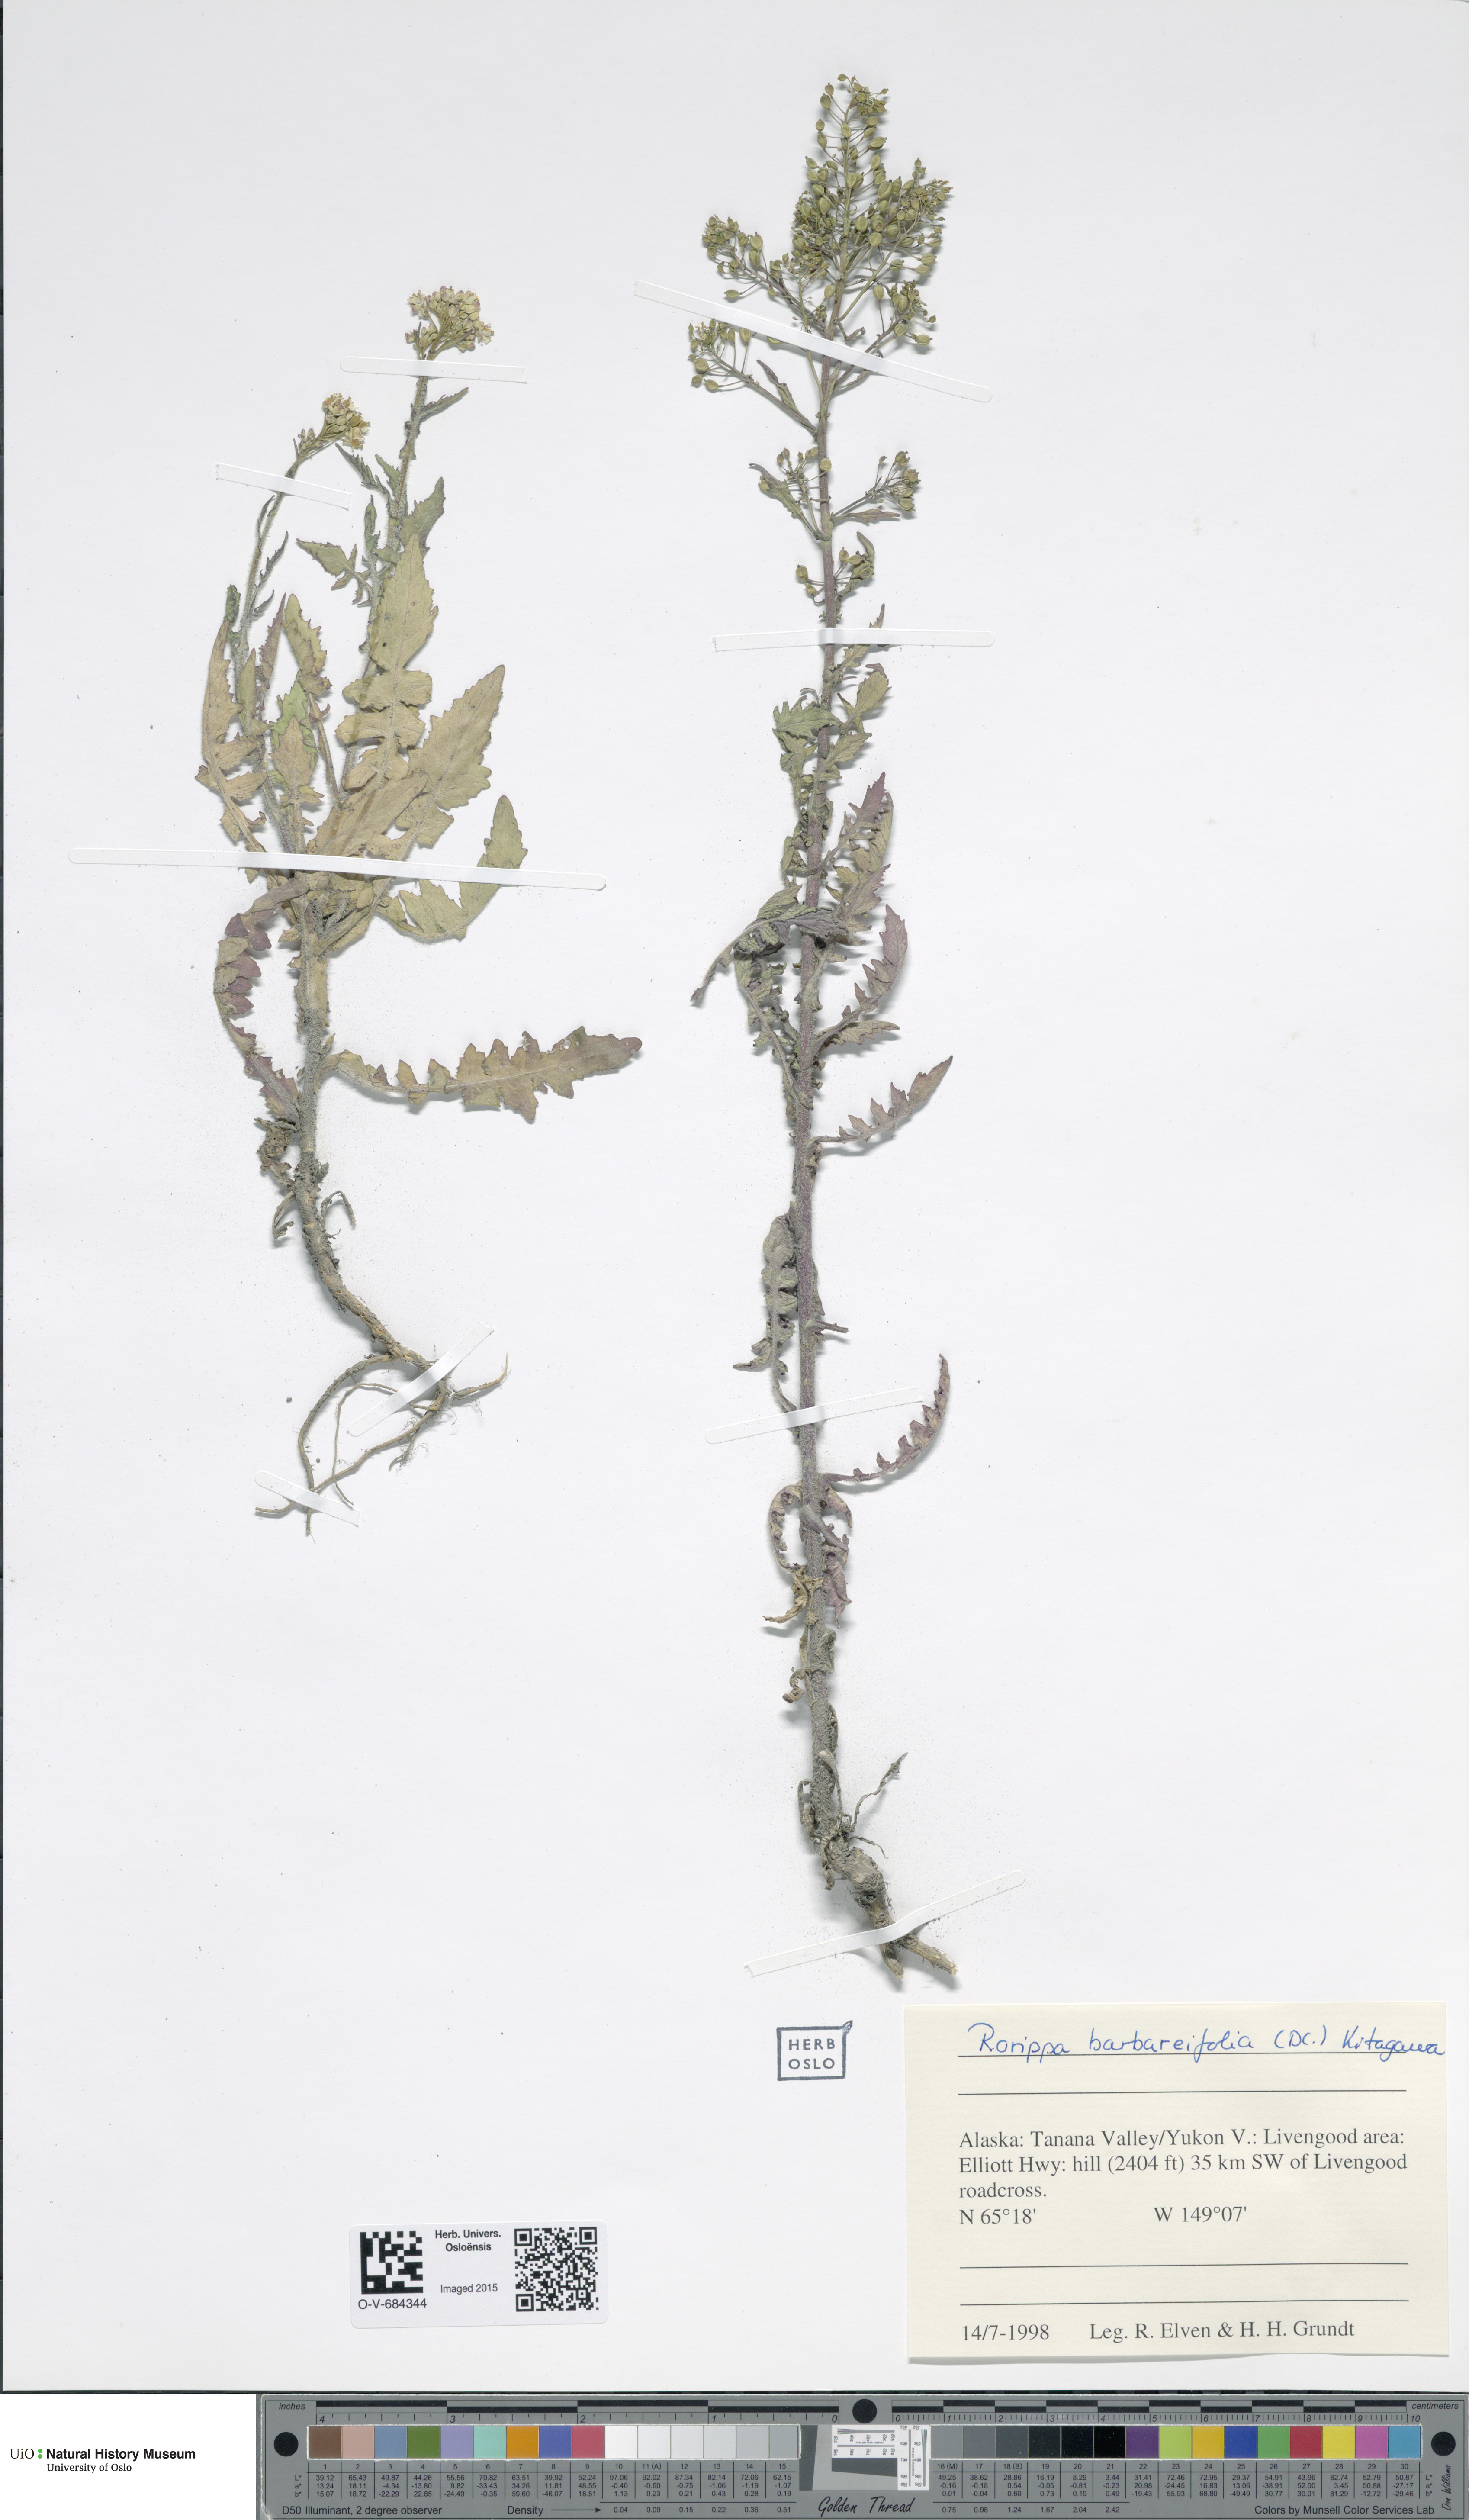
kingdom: Plantae
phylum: Tracheophyta
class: Magnoliopsida
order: Brassicales
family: Brassicaceae
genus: Rorippa
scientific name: Rorippa barbareifolia
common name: Hoary yellowcress
